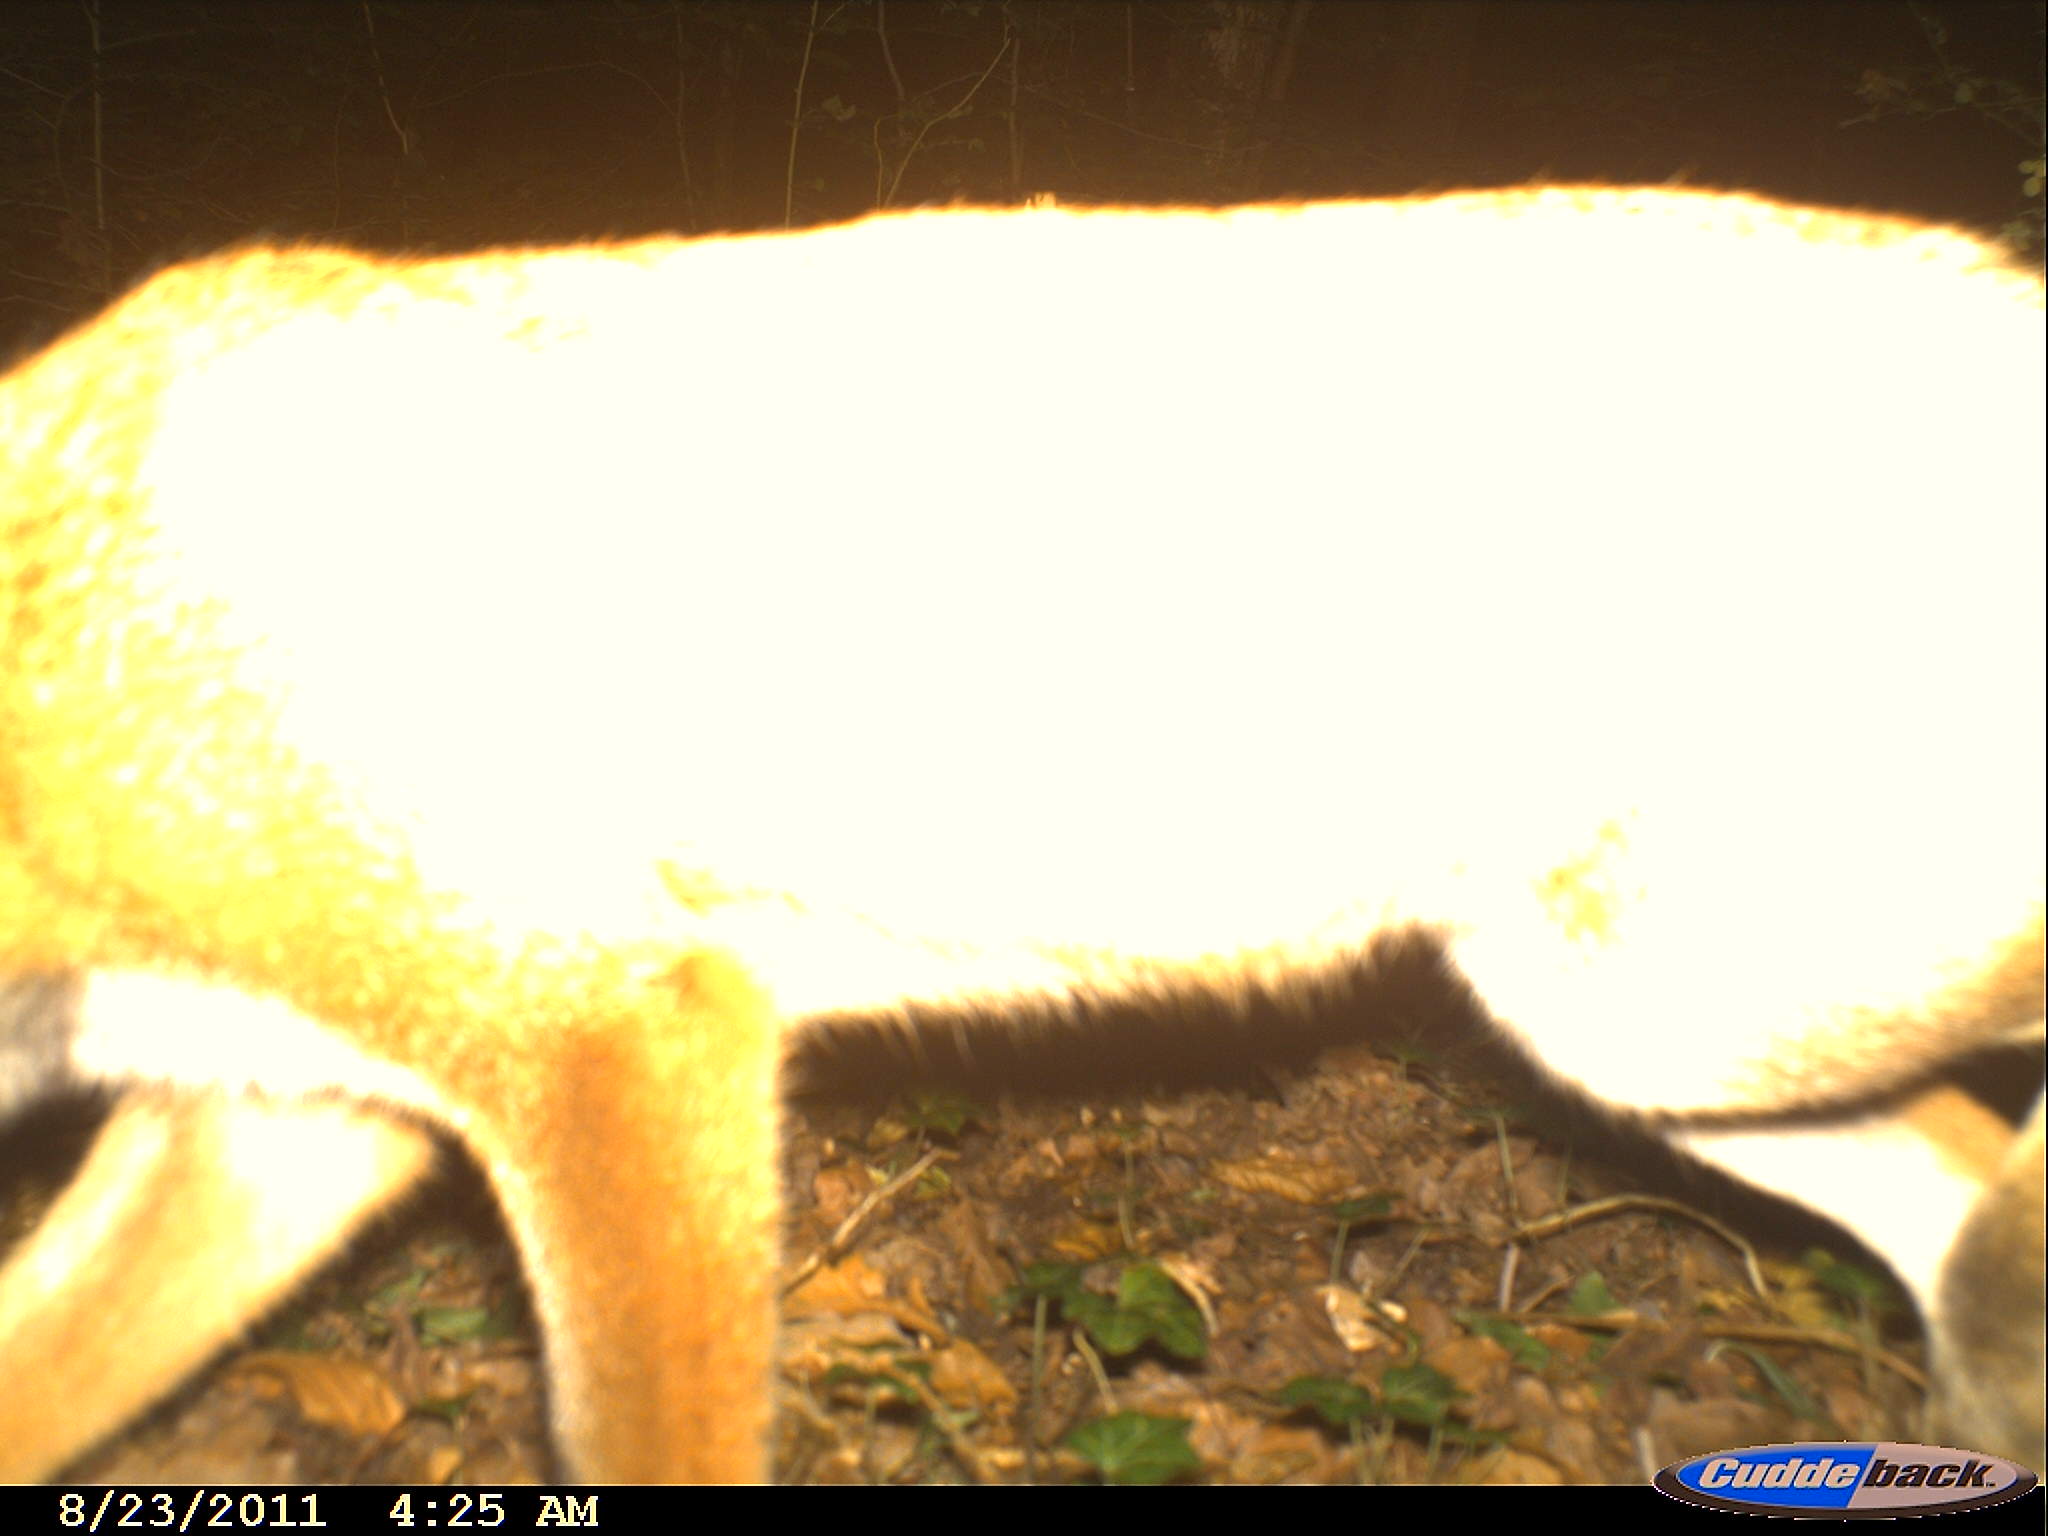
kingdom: Animalia
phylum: Chordata
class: Mammalia
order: Carnivora
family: Canidae
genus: Vulpes
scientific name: Vulpes vulpes
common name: Red fox
